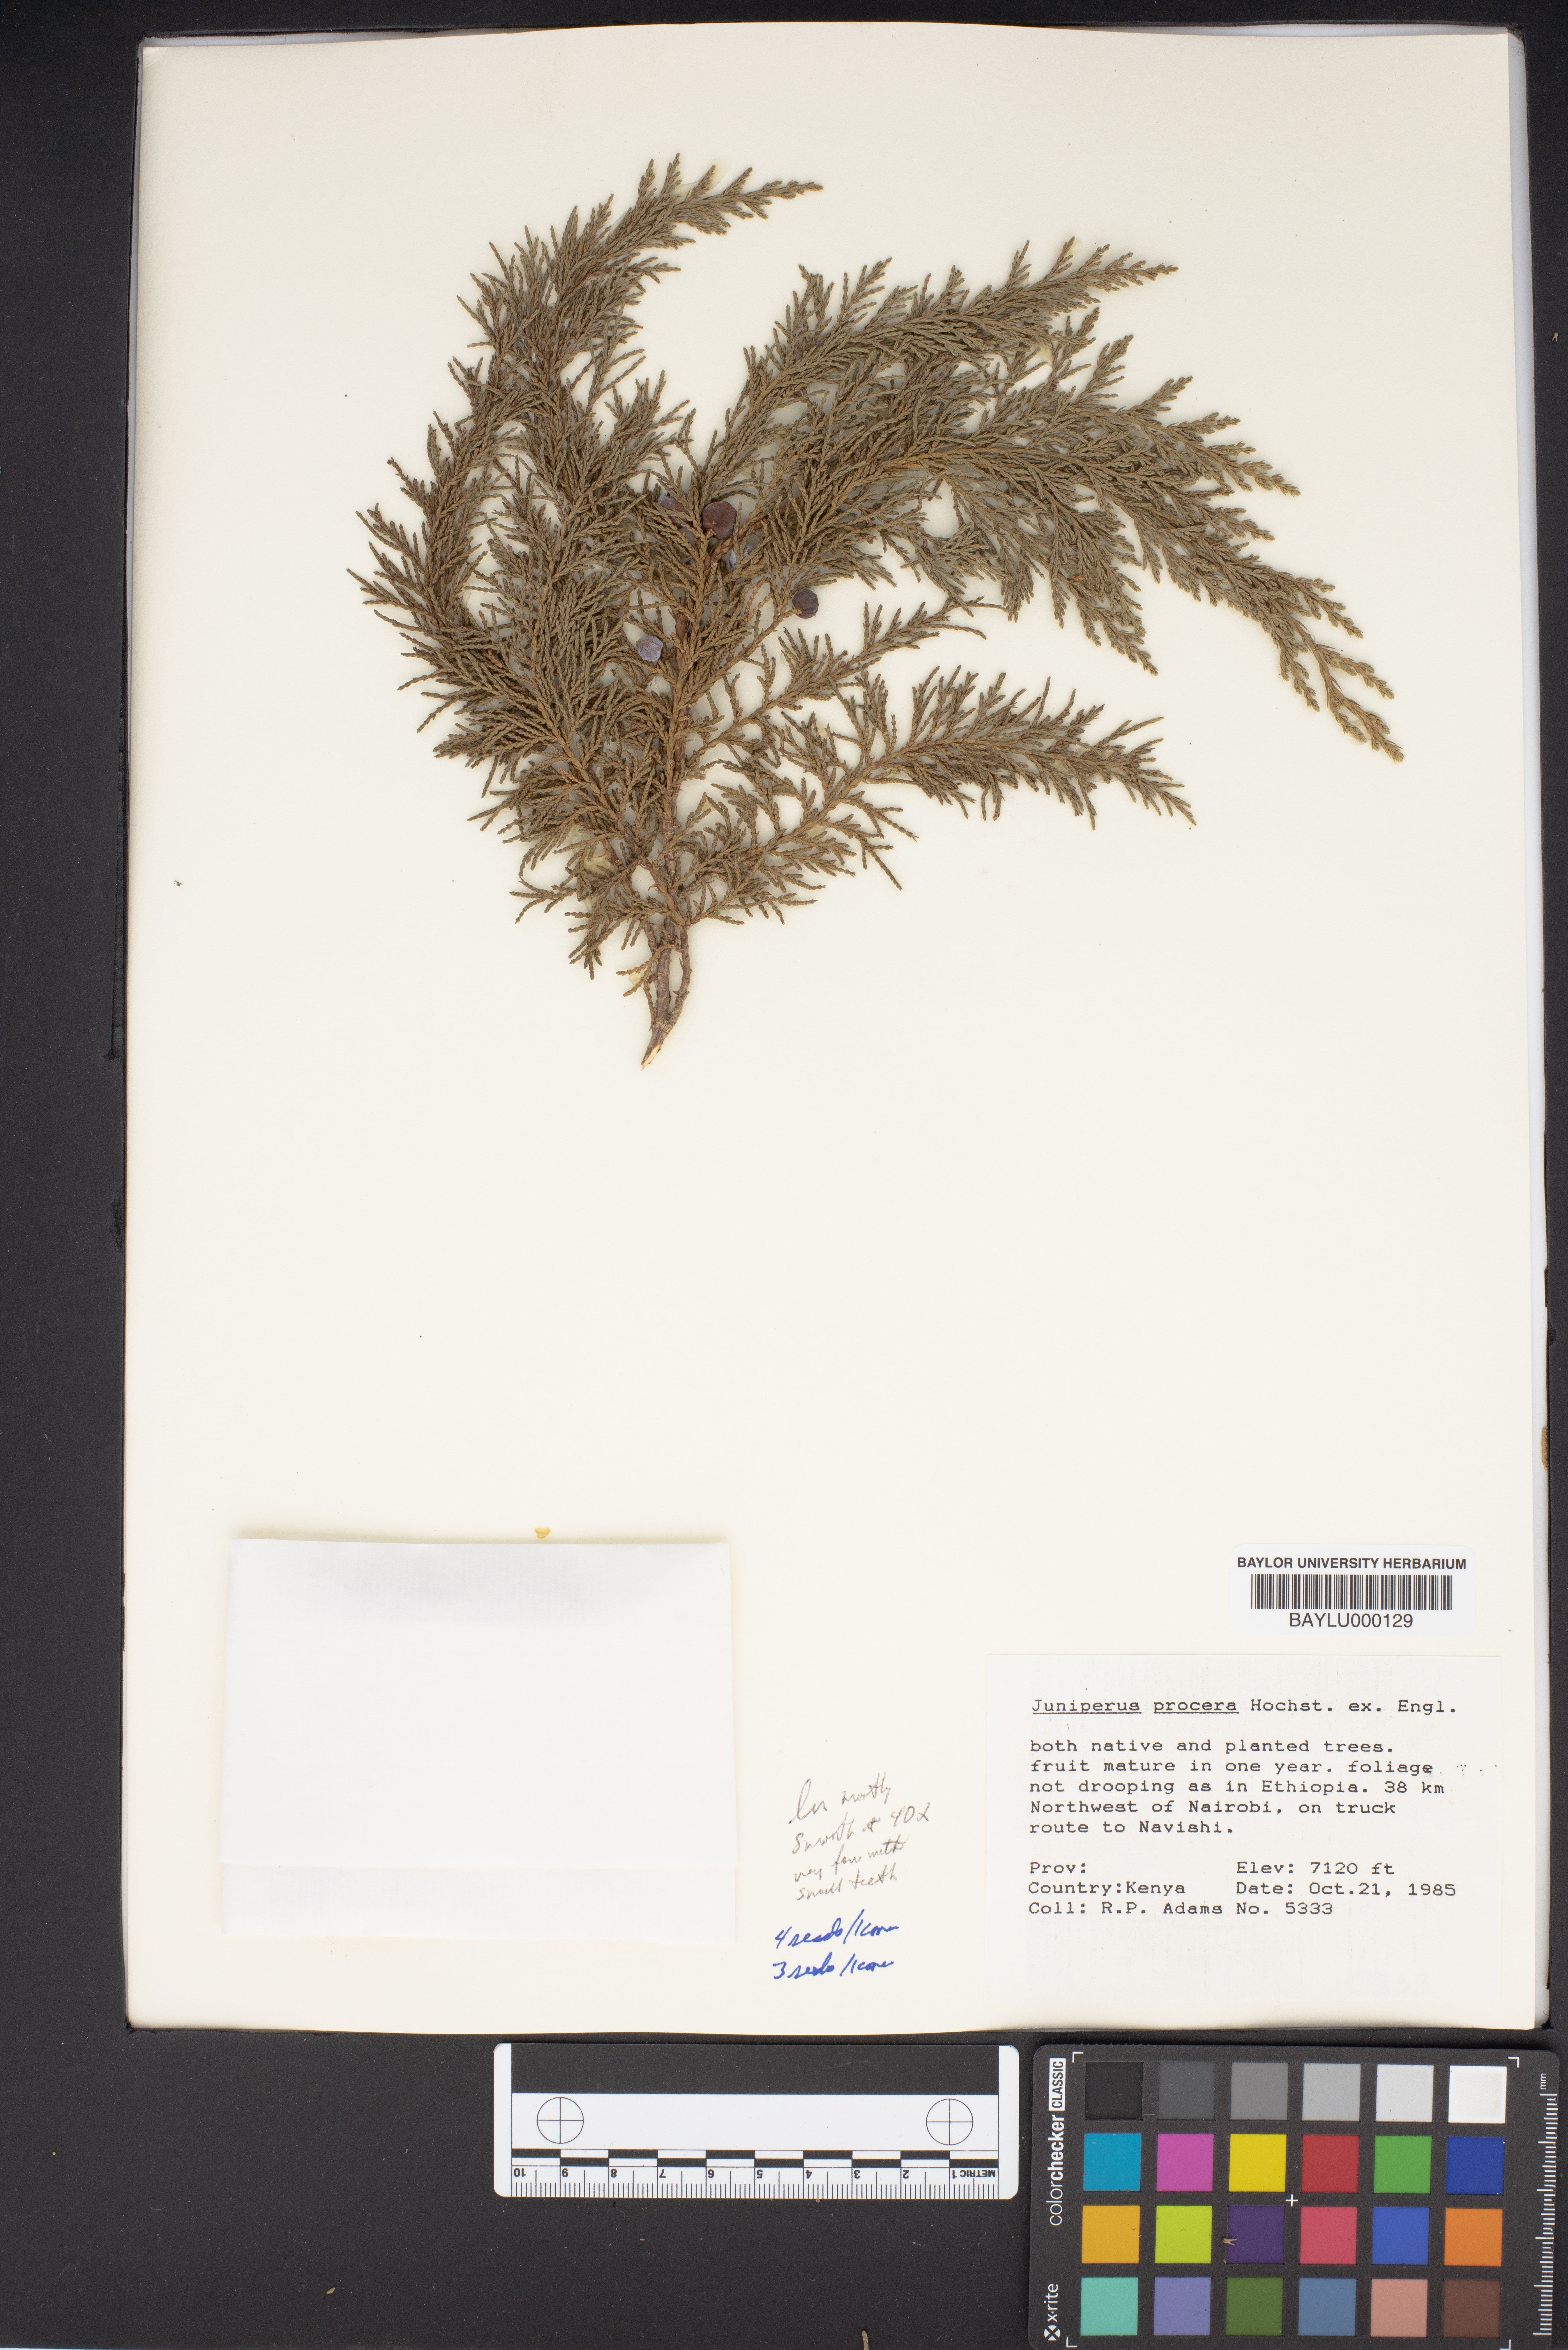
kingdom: Plantae
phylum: Tracheophyta
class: Pinopsida
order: Pinales
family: Cupressaceae
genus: Juniperus
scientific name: Juniperus procera
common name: African juniper
